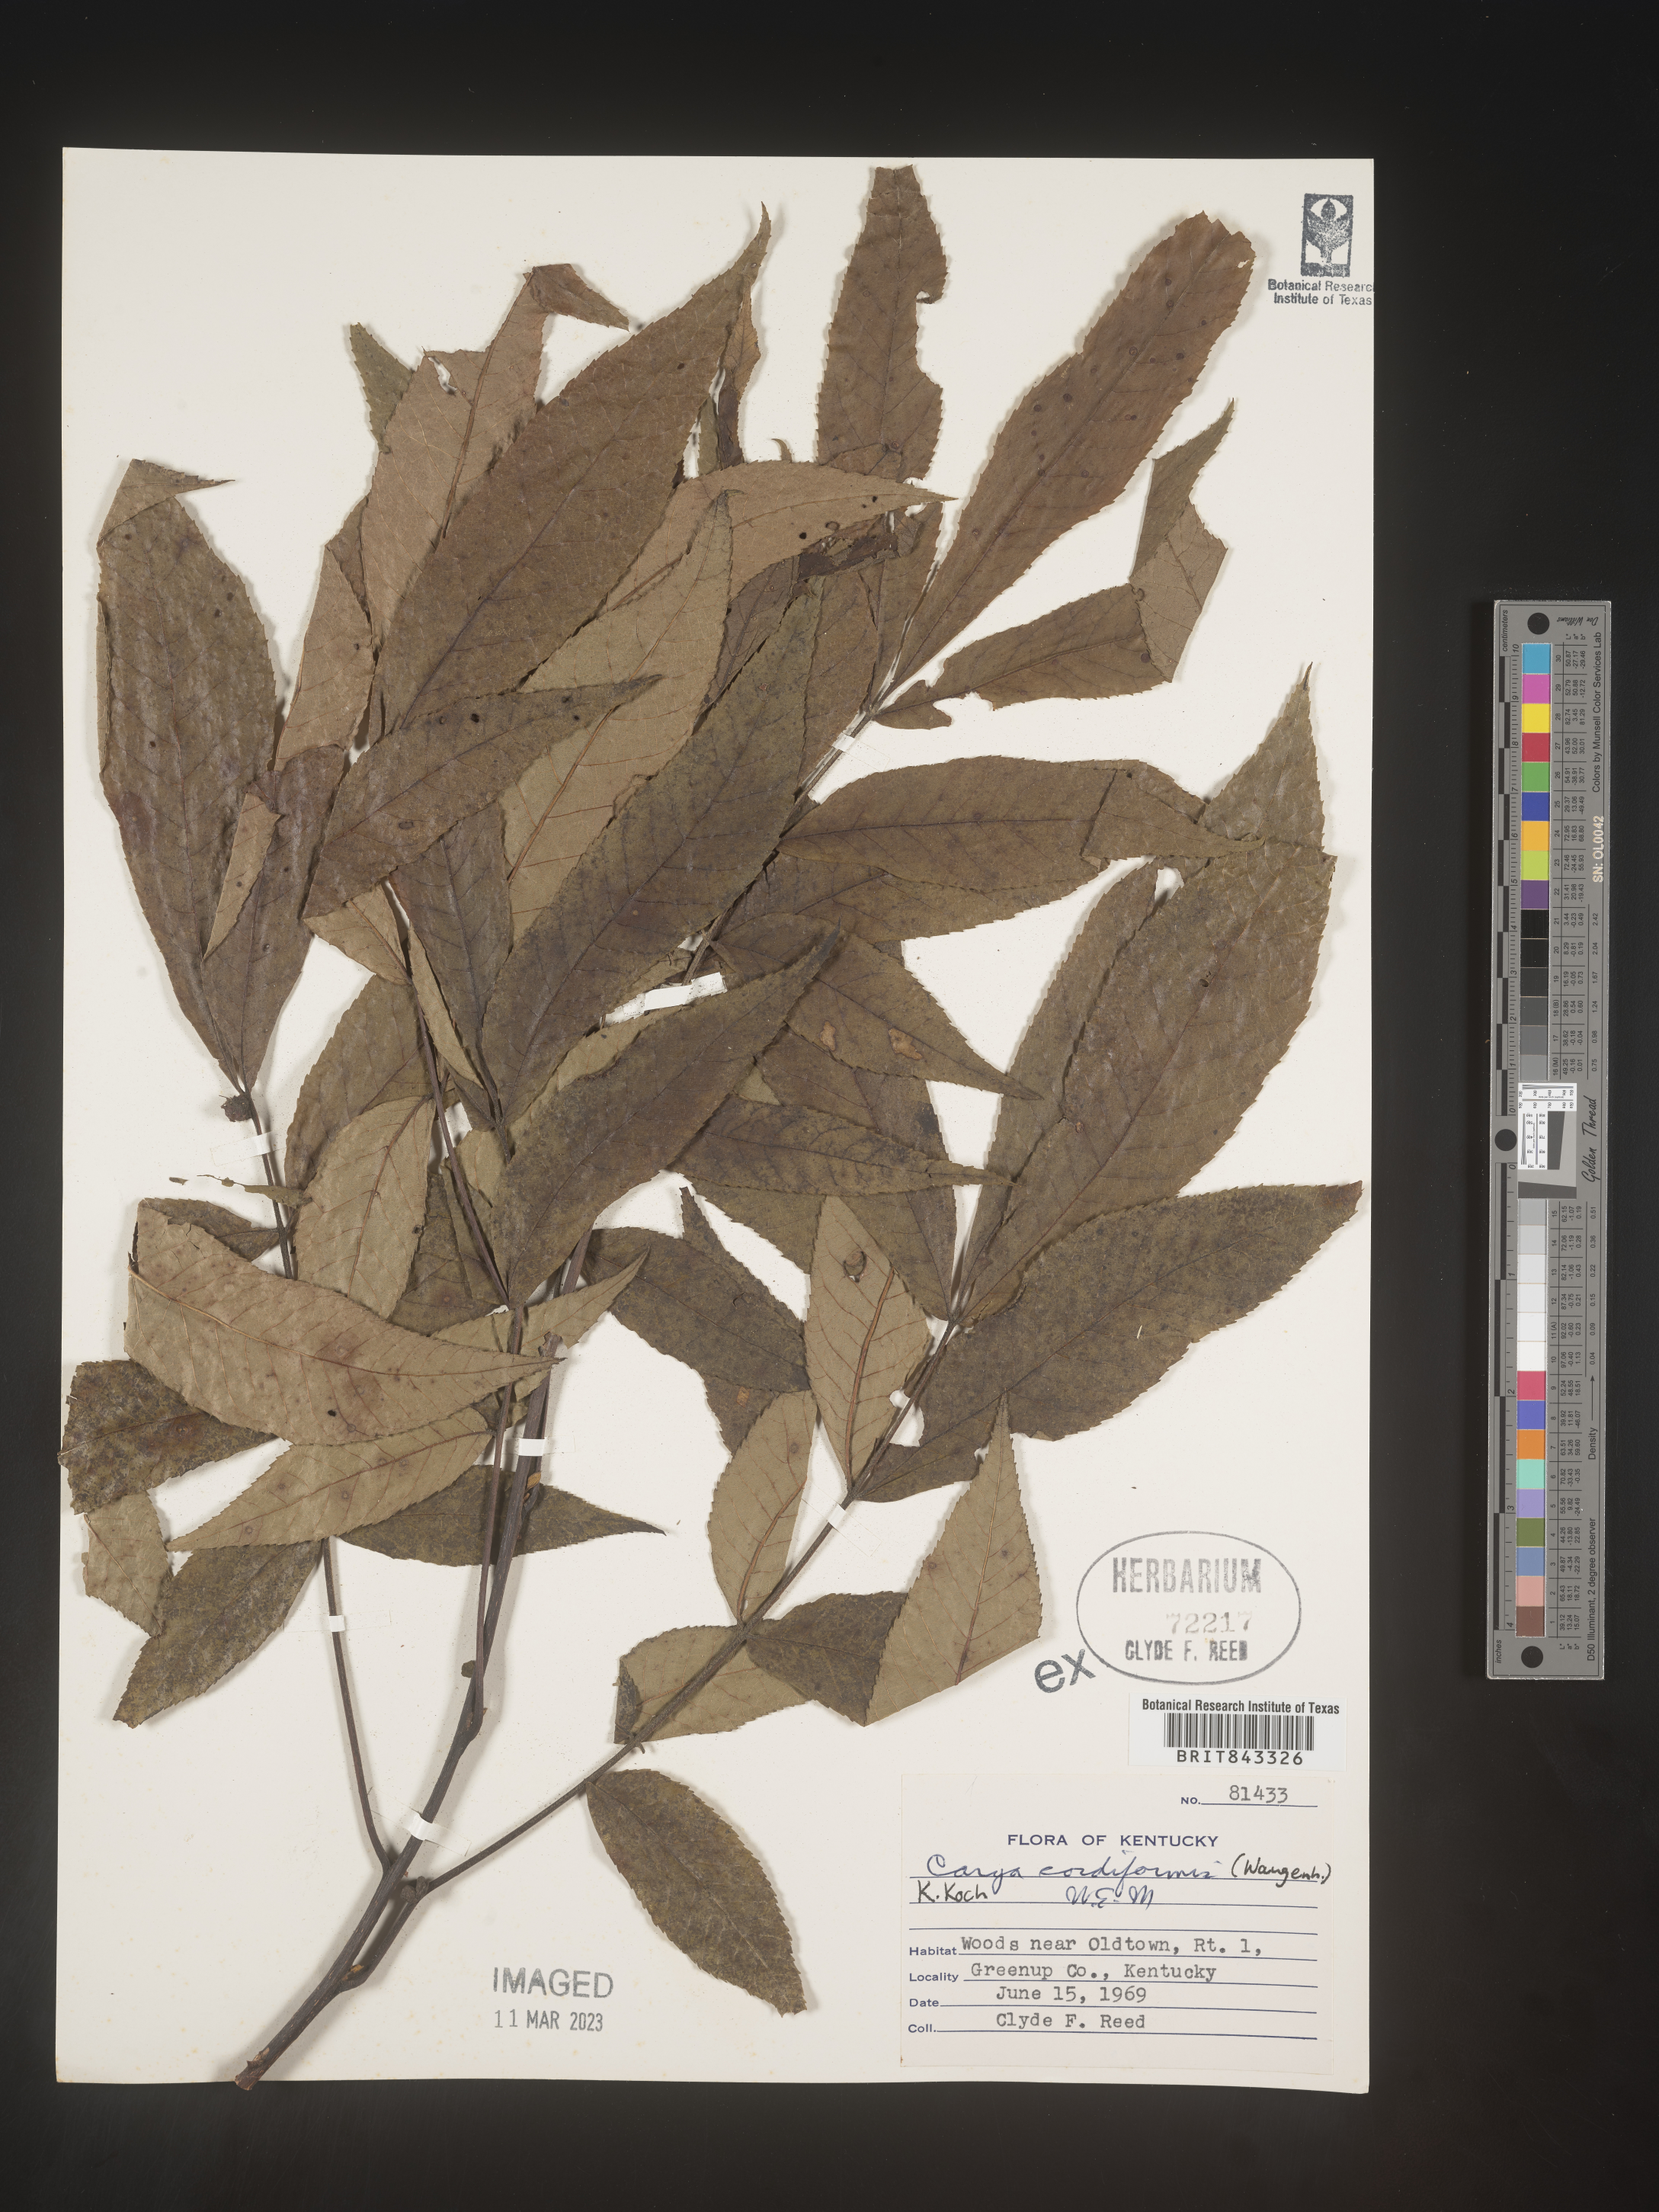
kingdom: Plantae
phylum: Tracheophyta
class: Magnoliopsida
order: Fagales
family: Juglandaceae
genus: Carya
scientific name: Carya cordiformis
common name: Bitternut hickory
